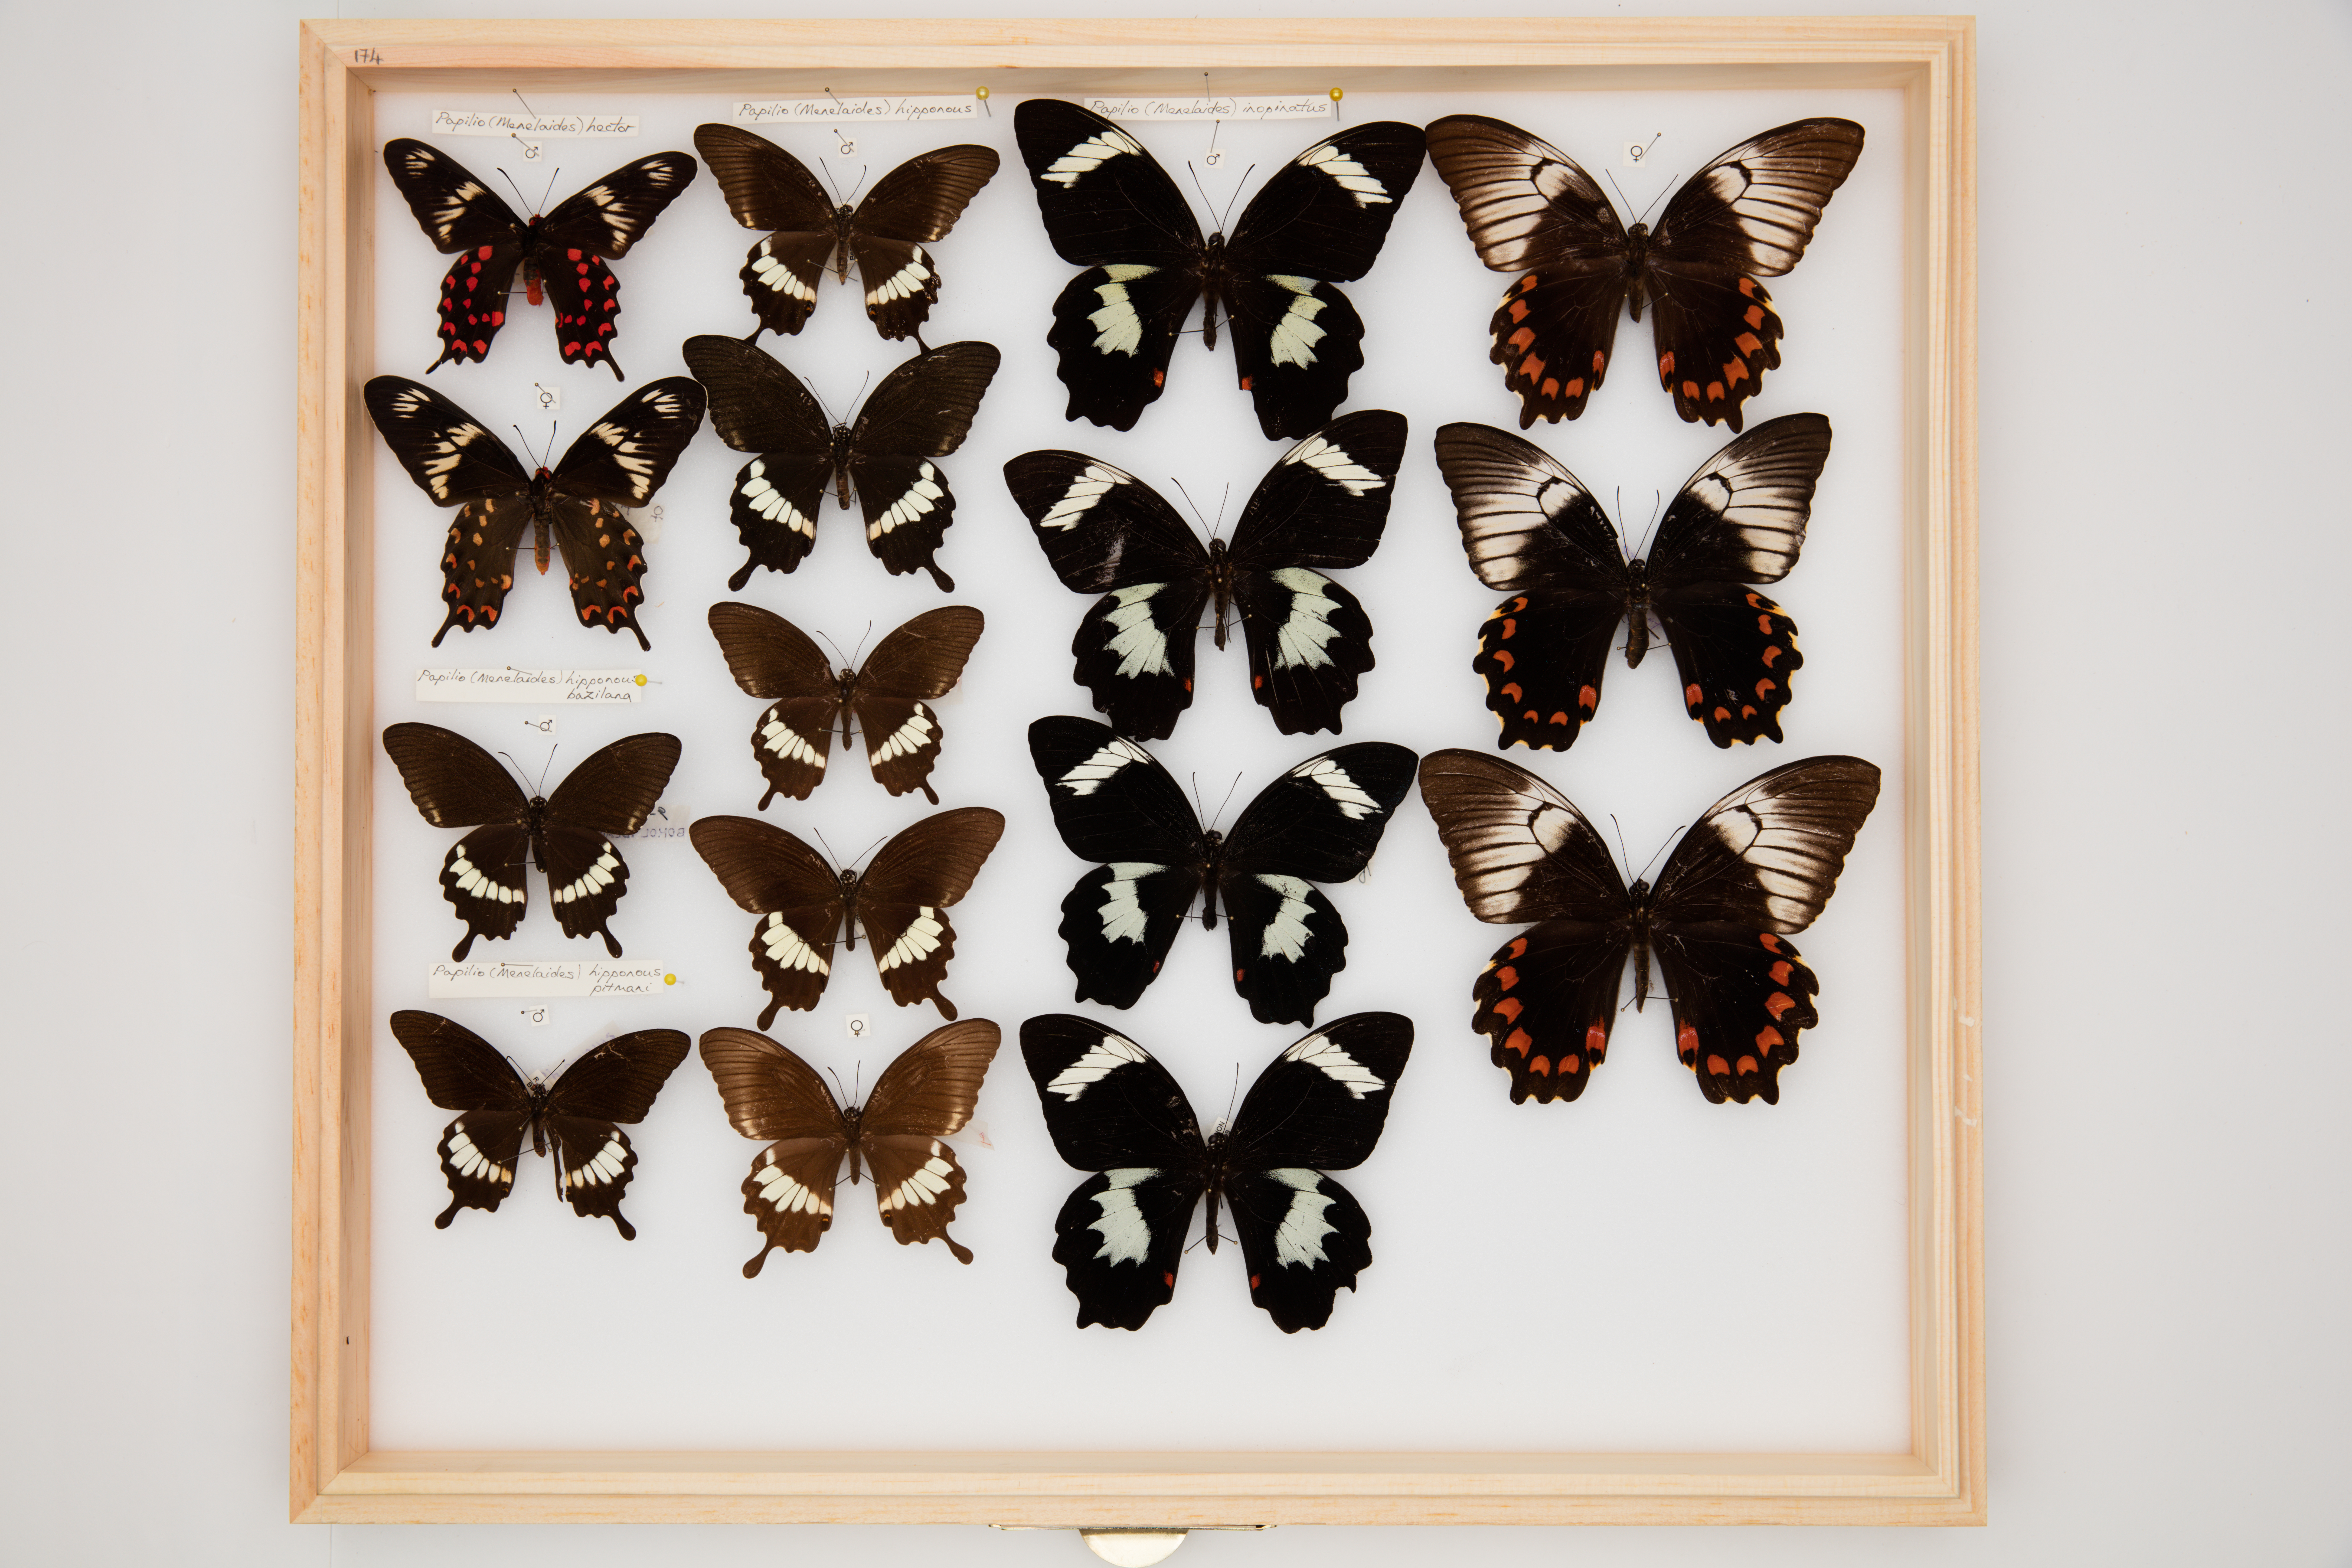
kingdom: Animalia
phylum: Arthropoda
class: Insecta
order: Lepidoptera
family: Papilionidae
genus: Papilio
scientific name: Papilio polytes
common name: Common mormon
